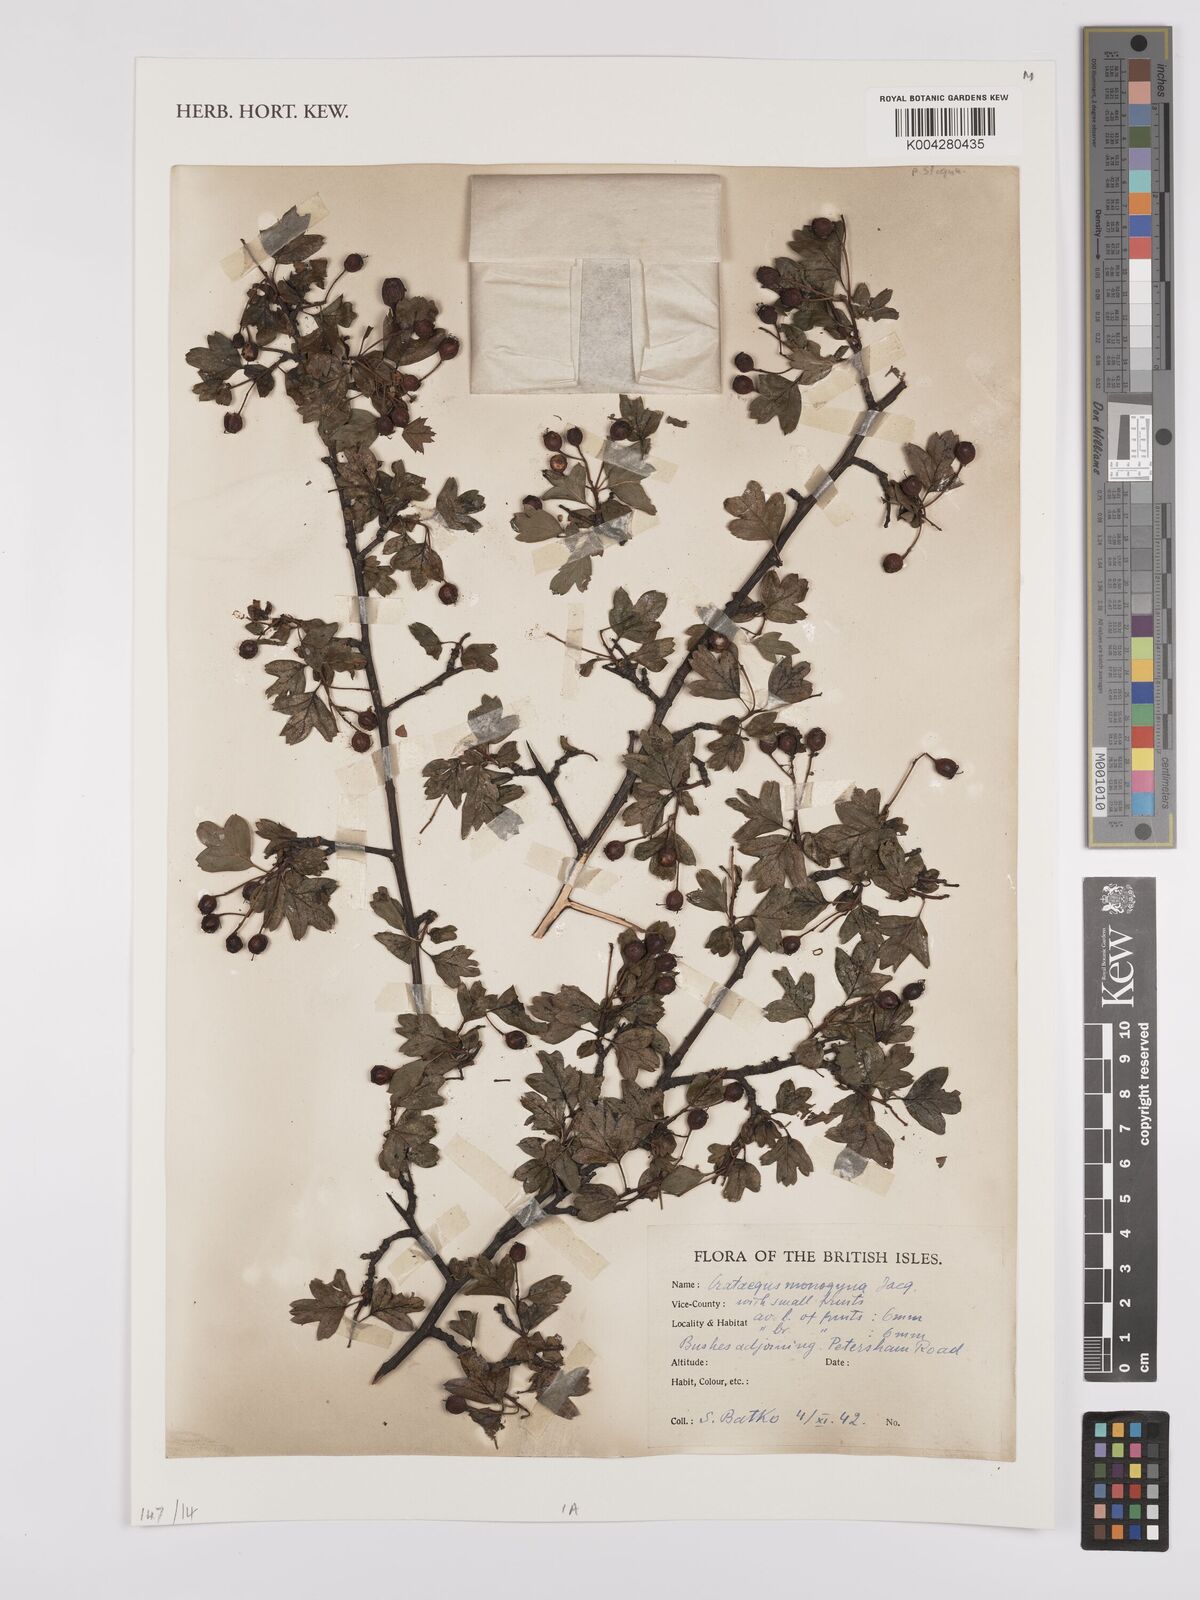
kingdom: Plantae
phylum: Tracheophyta
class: Magnoliopsida
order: Rosales
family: Rosaceae
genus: Crataegus
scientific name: Crataegus monogyna
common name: Hawthorn
